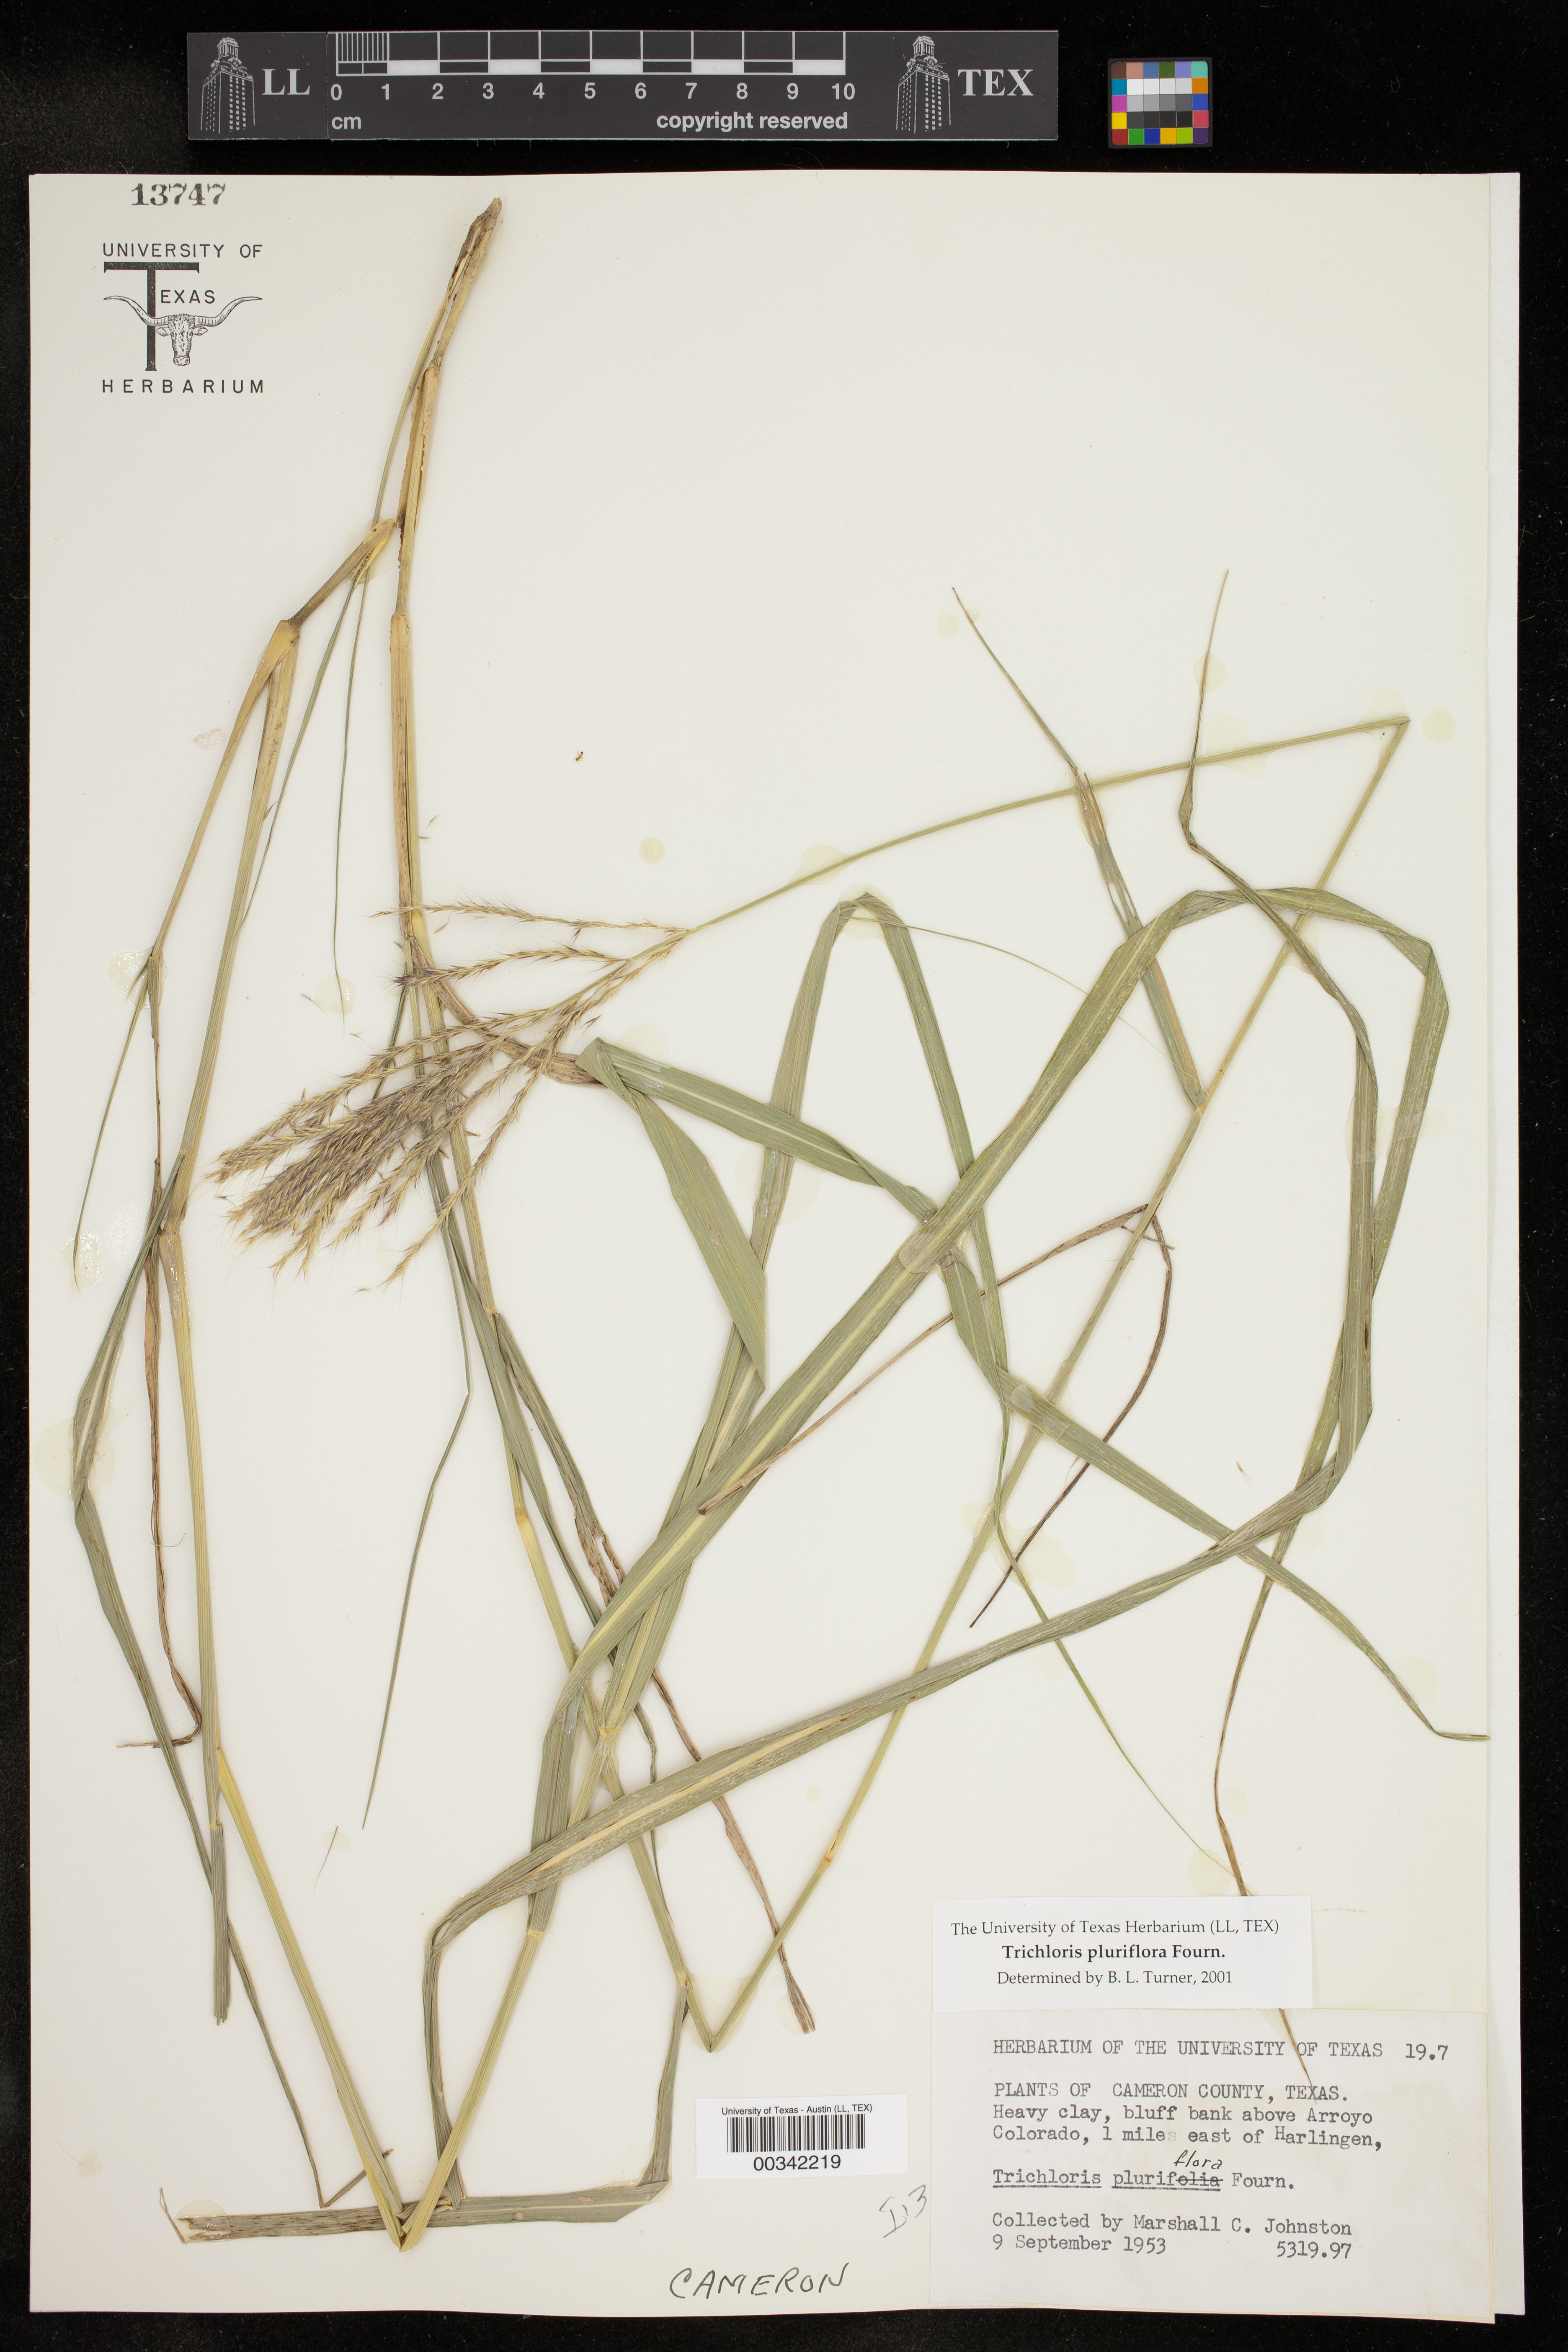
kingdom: Plantae
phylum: Tracheophyta
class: Liliopsida
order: Poales
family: Poaceae
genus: Leptochloa
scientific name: Leptochloa pluriflora
